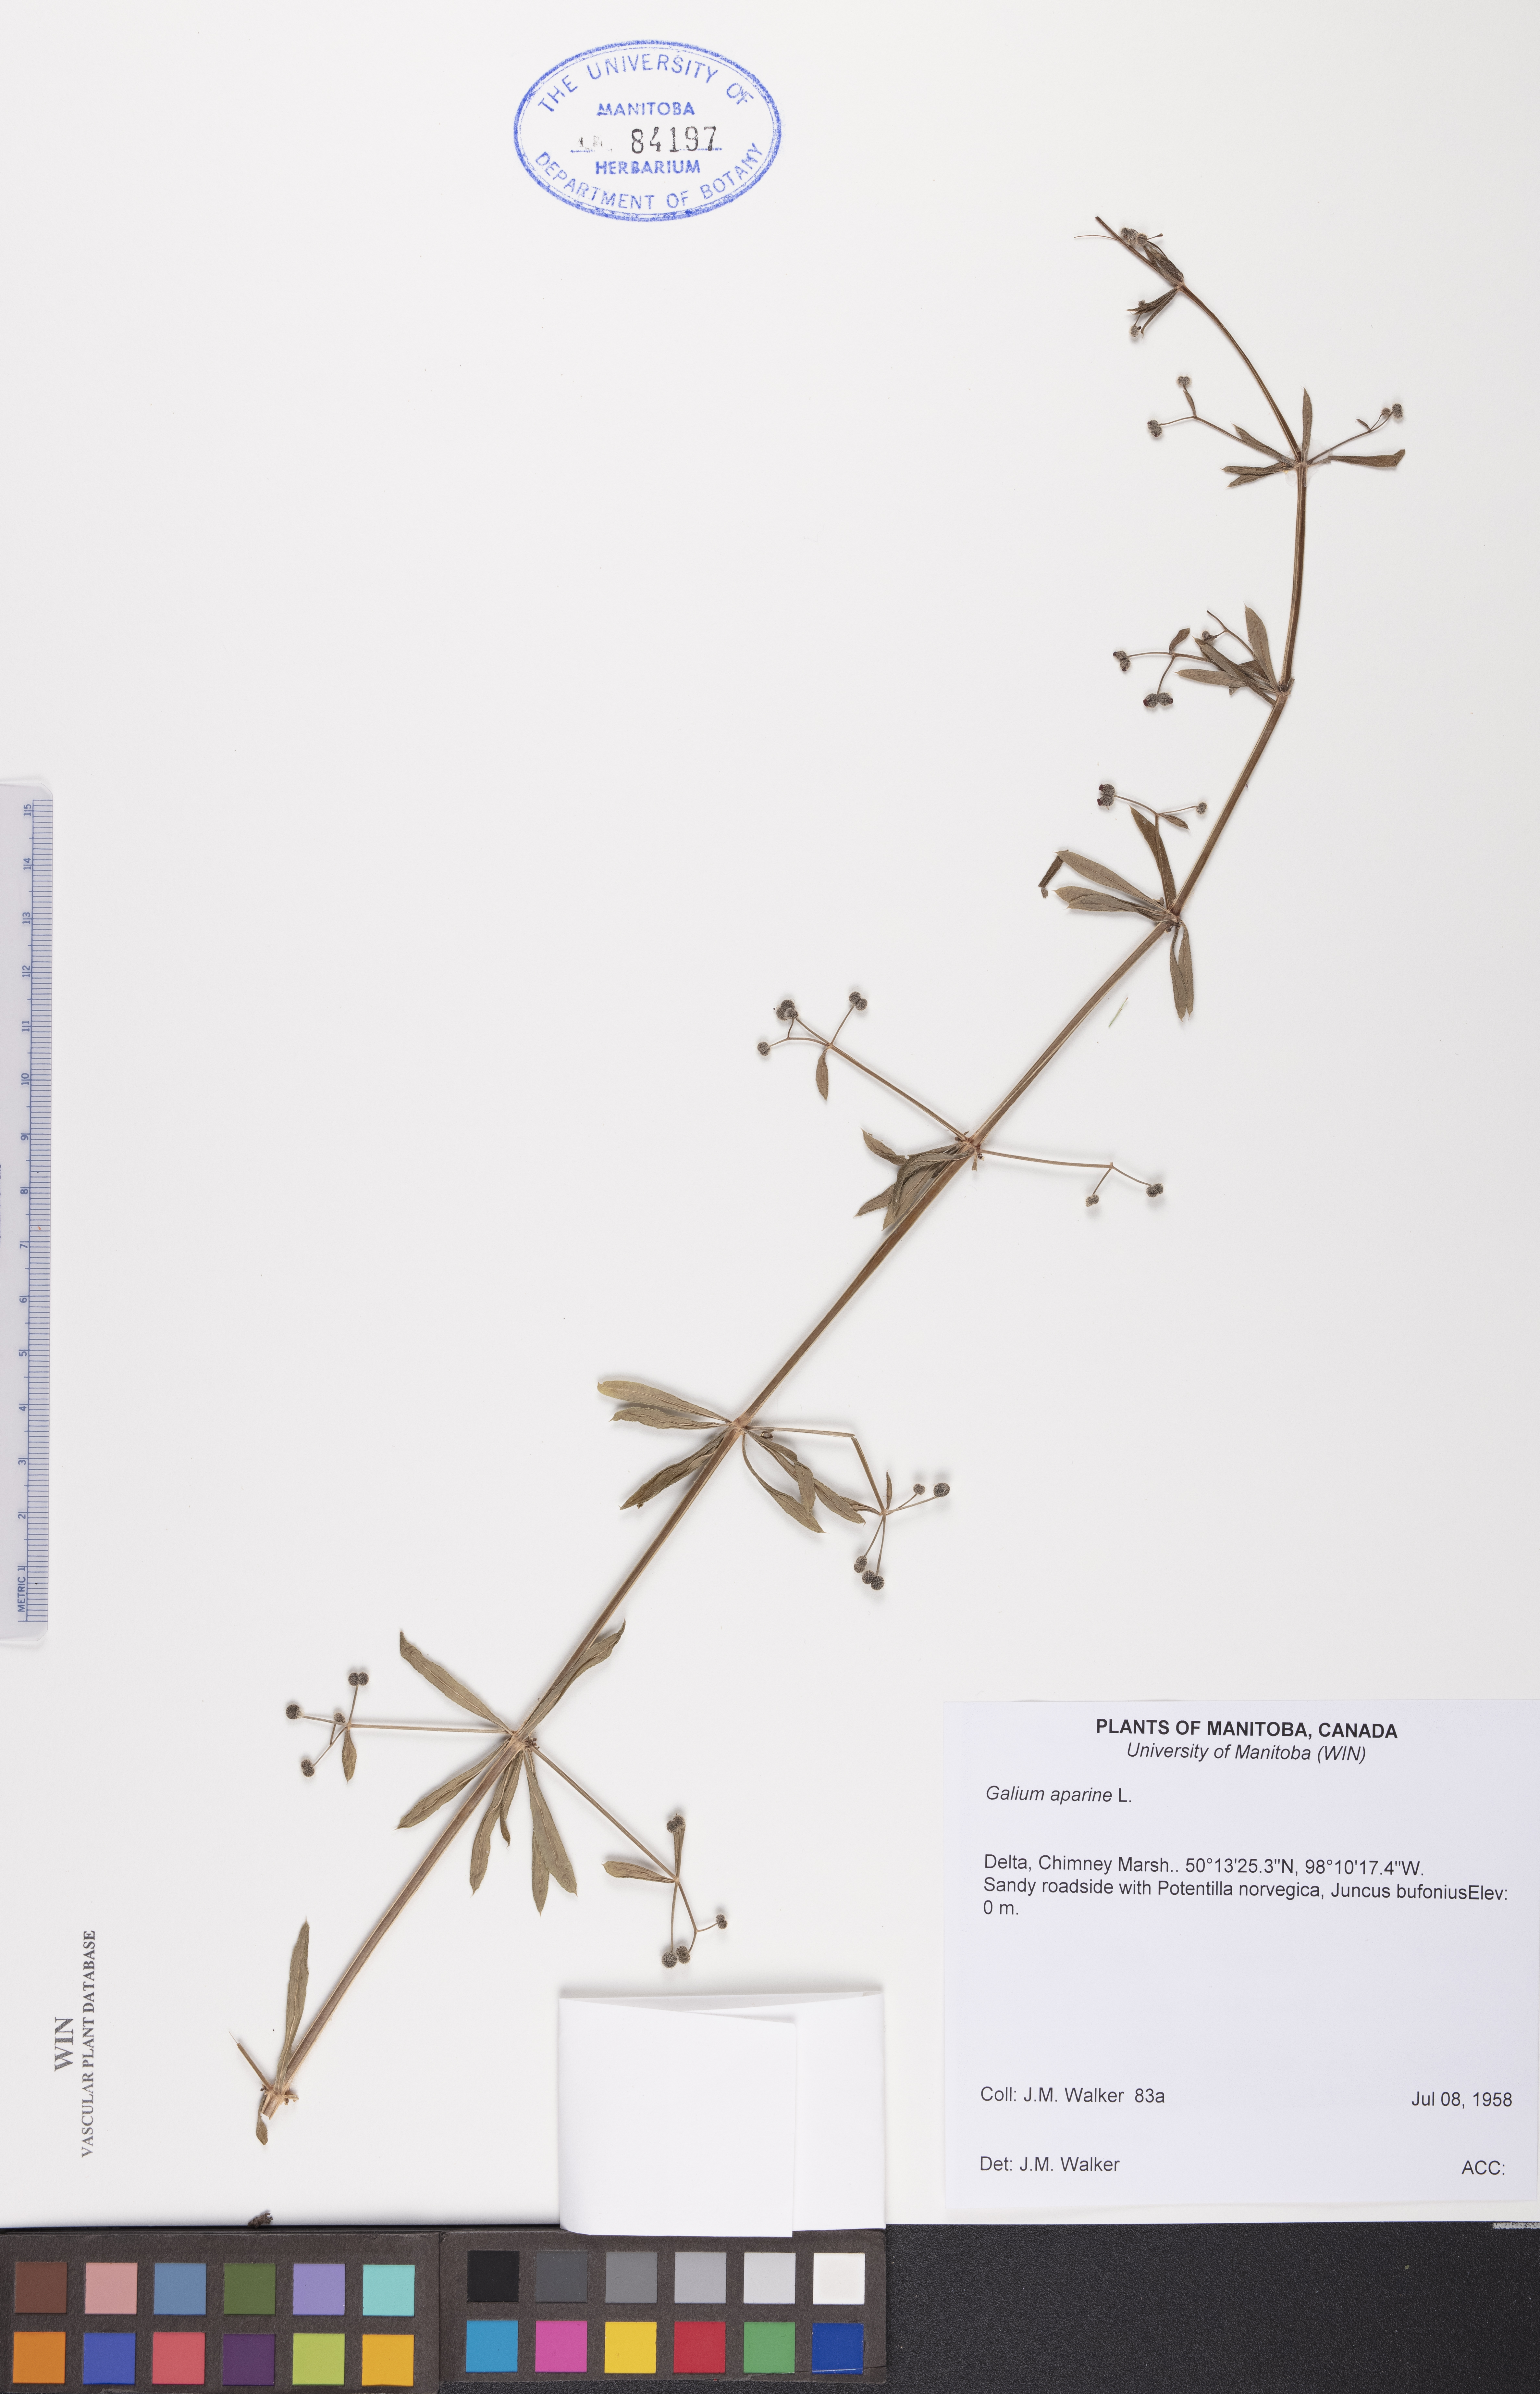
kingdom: Plantae
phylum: Tracheophyta
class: Magnoliopsida
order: Gentianales
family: Rubiaceae
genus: Galium
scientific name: Galium aparine
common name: Cleavers
